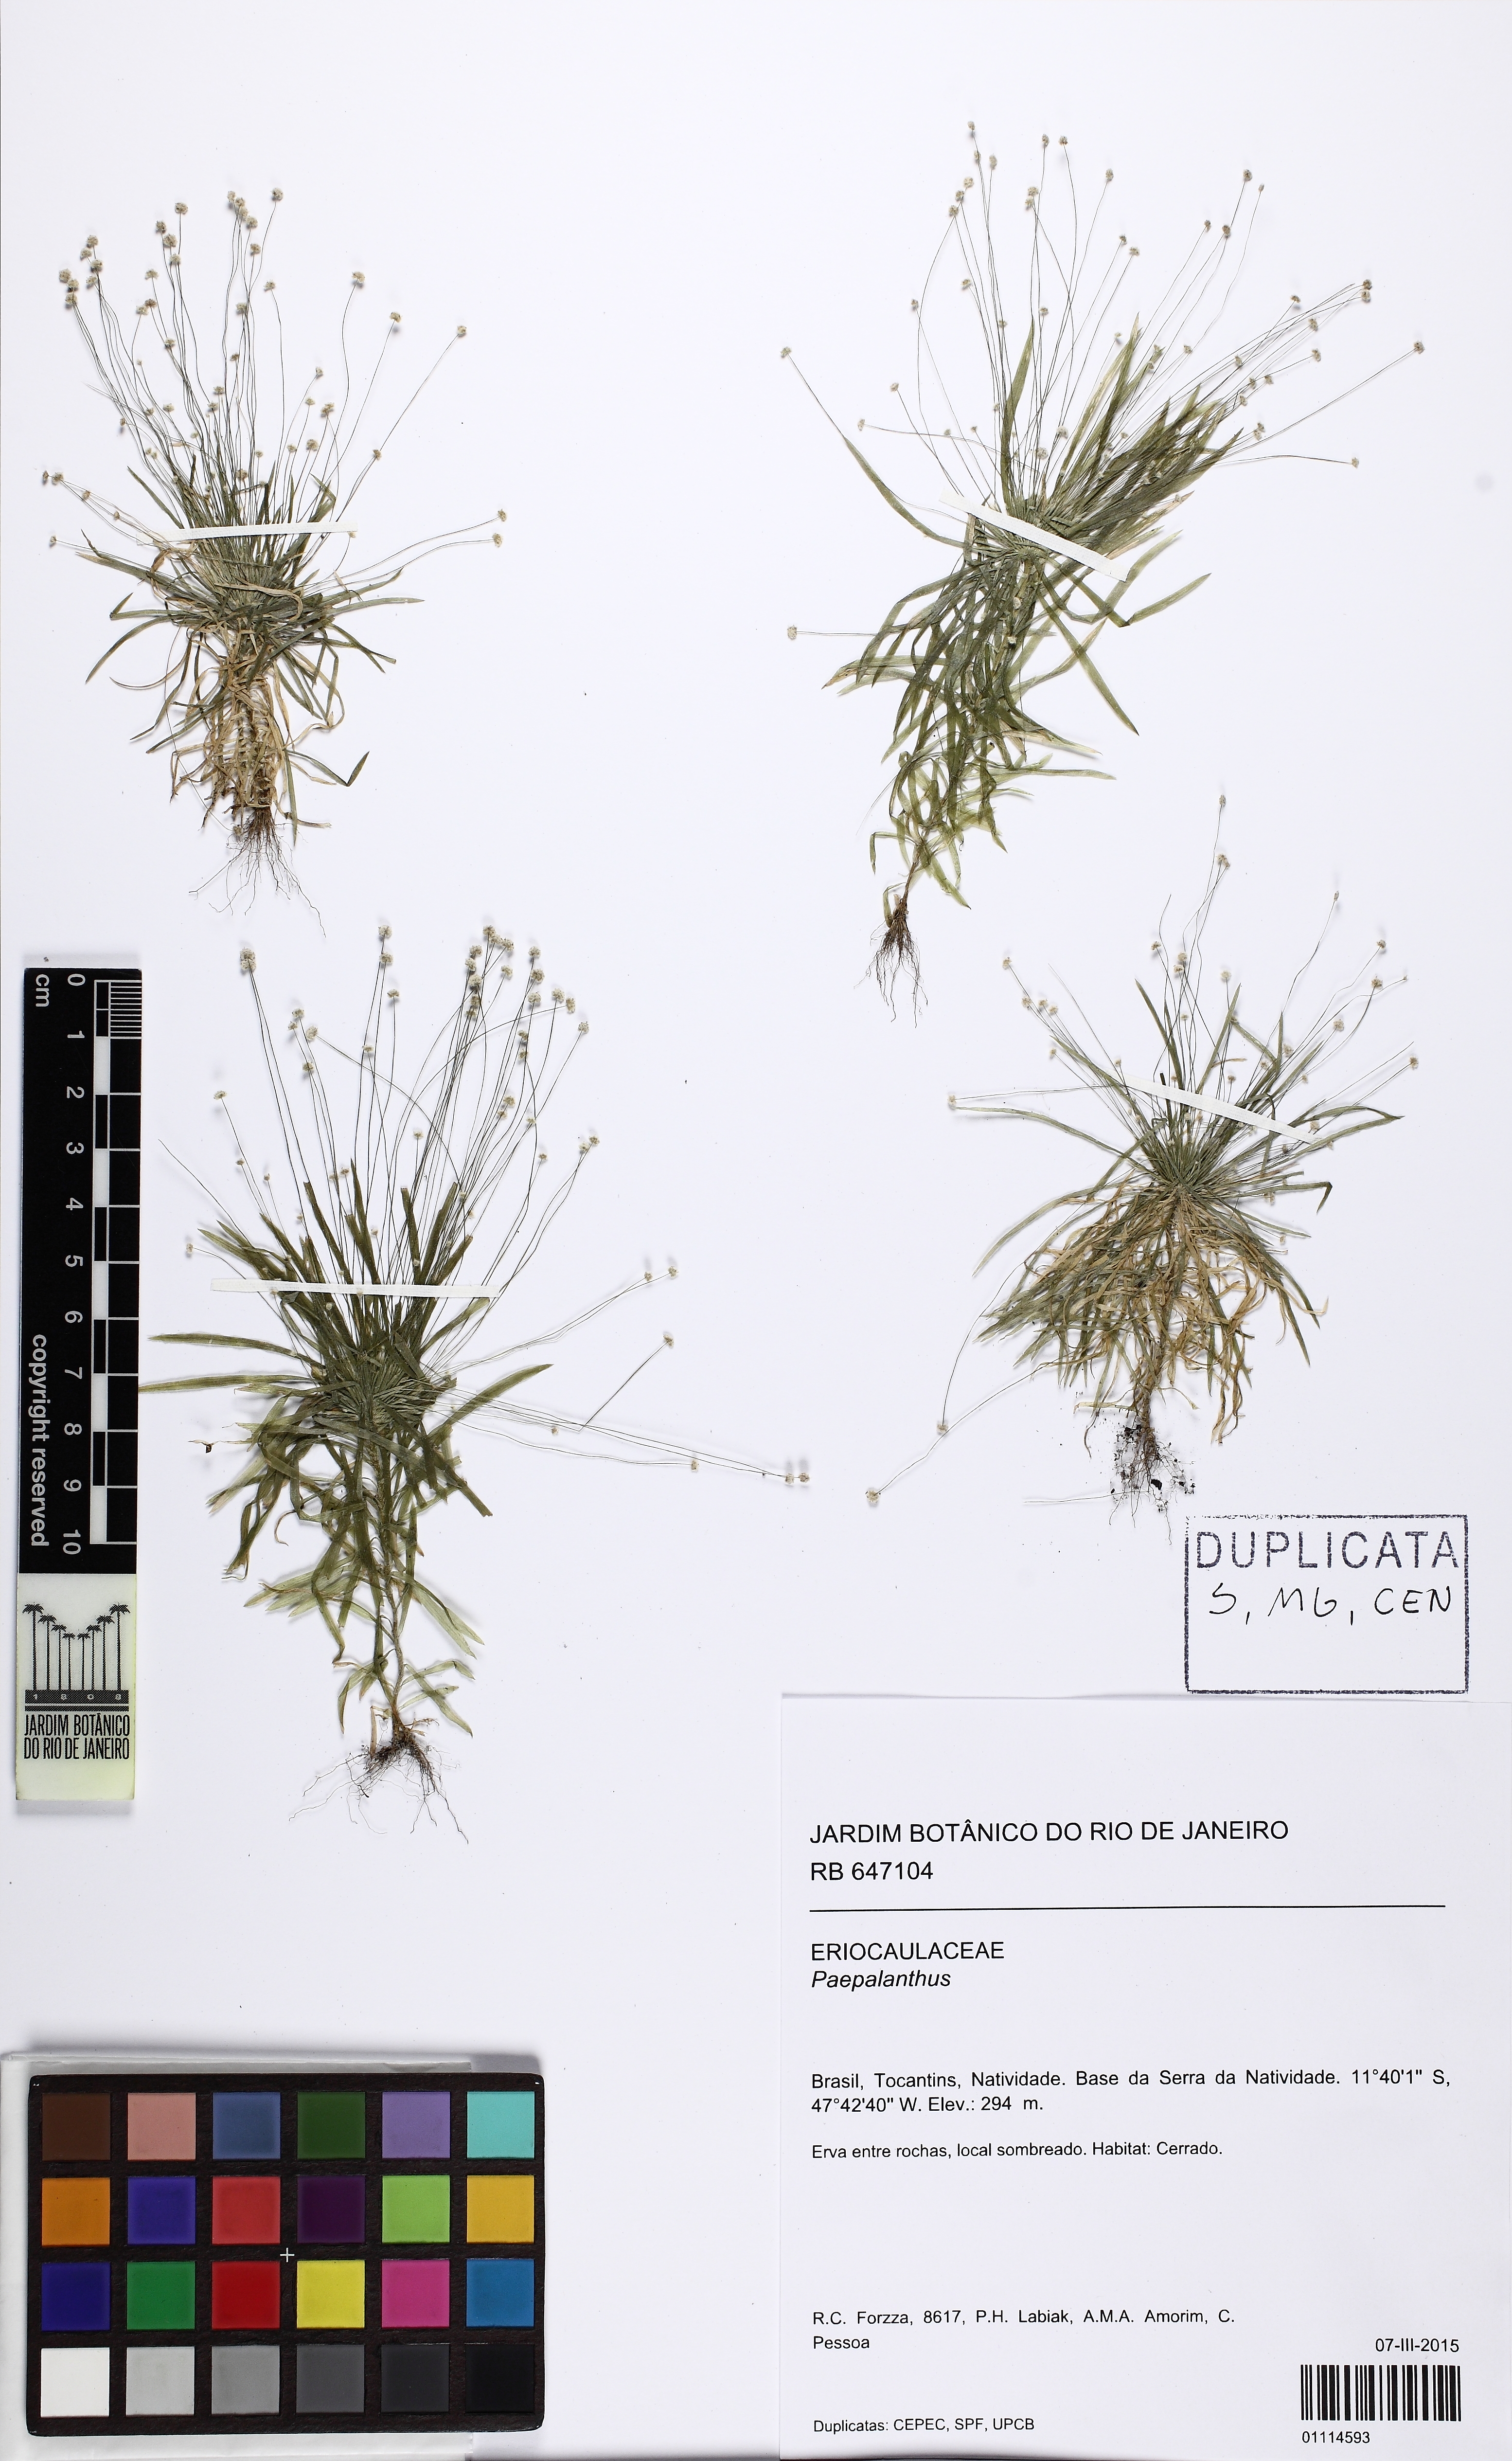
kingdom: Plantae
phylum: Tracheophyta
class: Liliopsida
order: Poales
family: Eriocaulaceae
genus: Paepalanthus
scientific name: Paepalanthus
